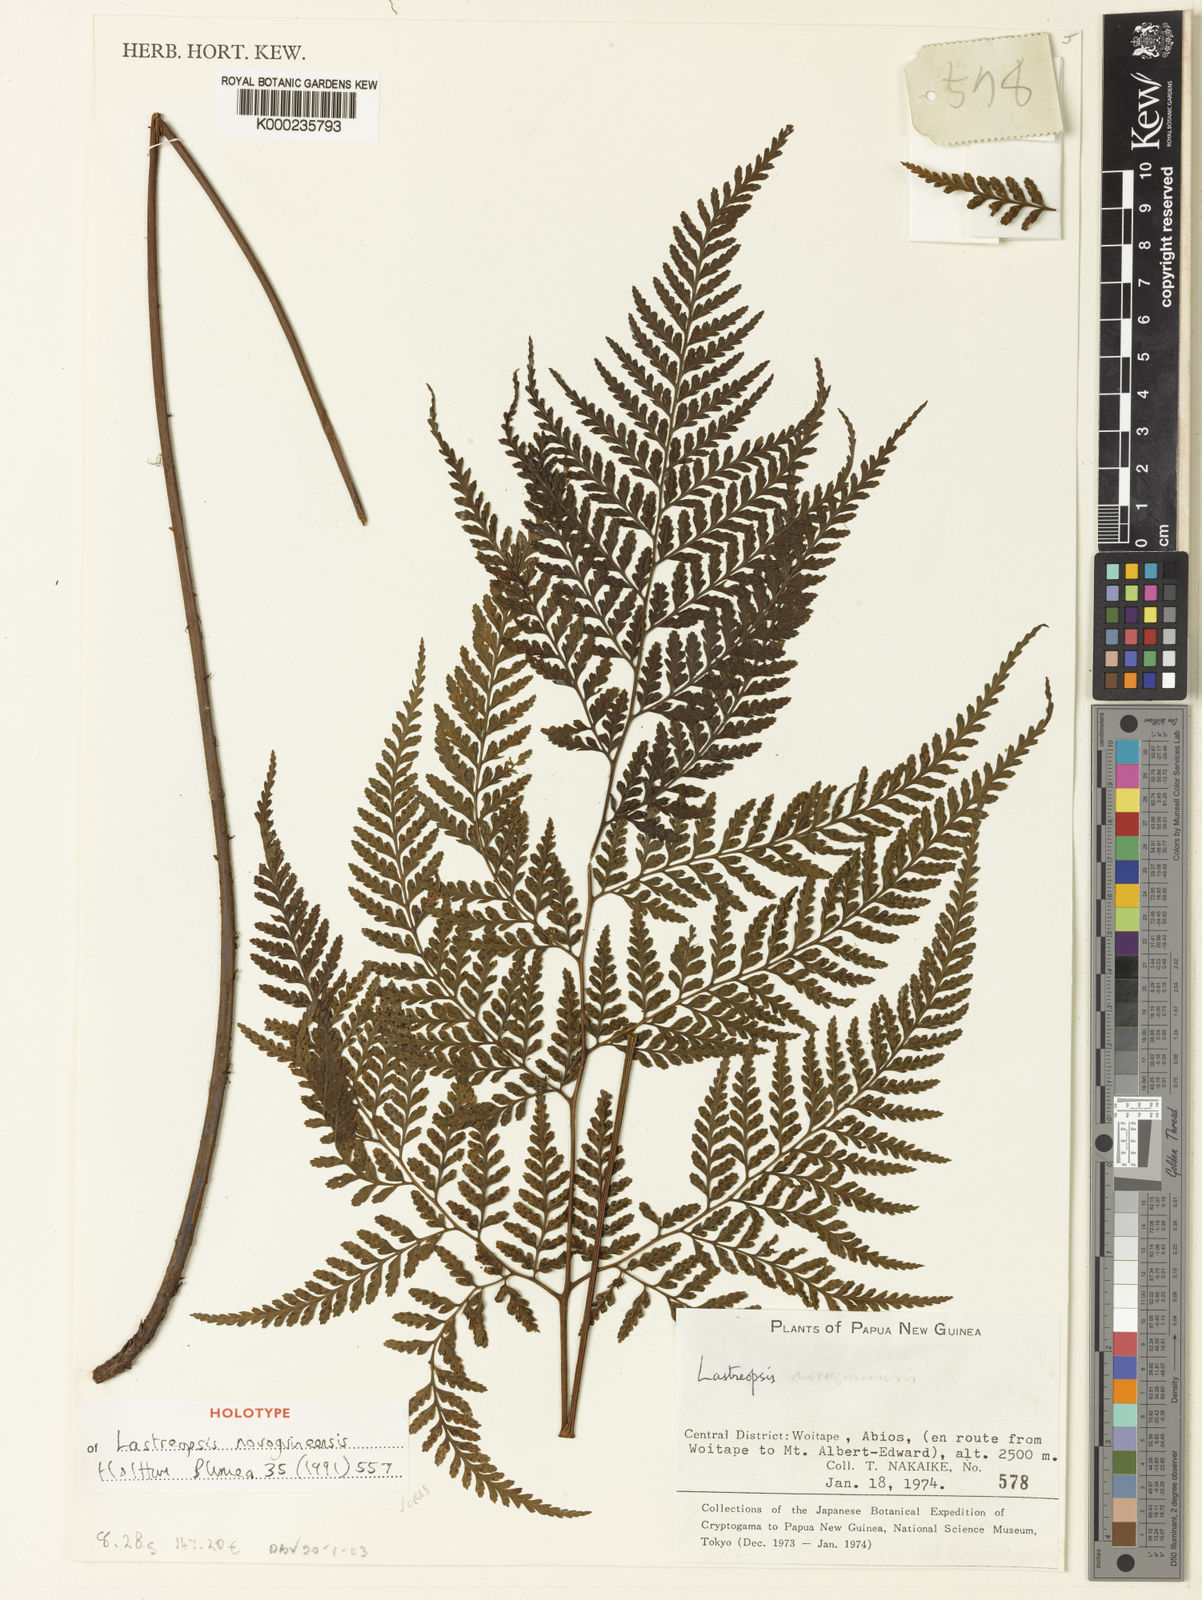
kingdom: Plantae
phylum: Tracheophyta
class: Polypodiopsida
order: Polypodiales
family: Dryopteridaceae
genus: Parapolystichum
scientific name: Parapolystichum novoguineense
